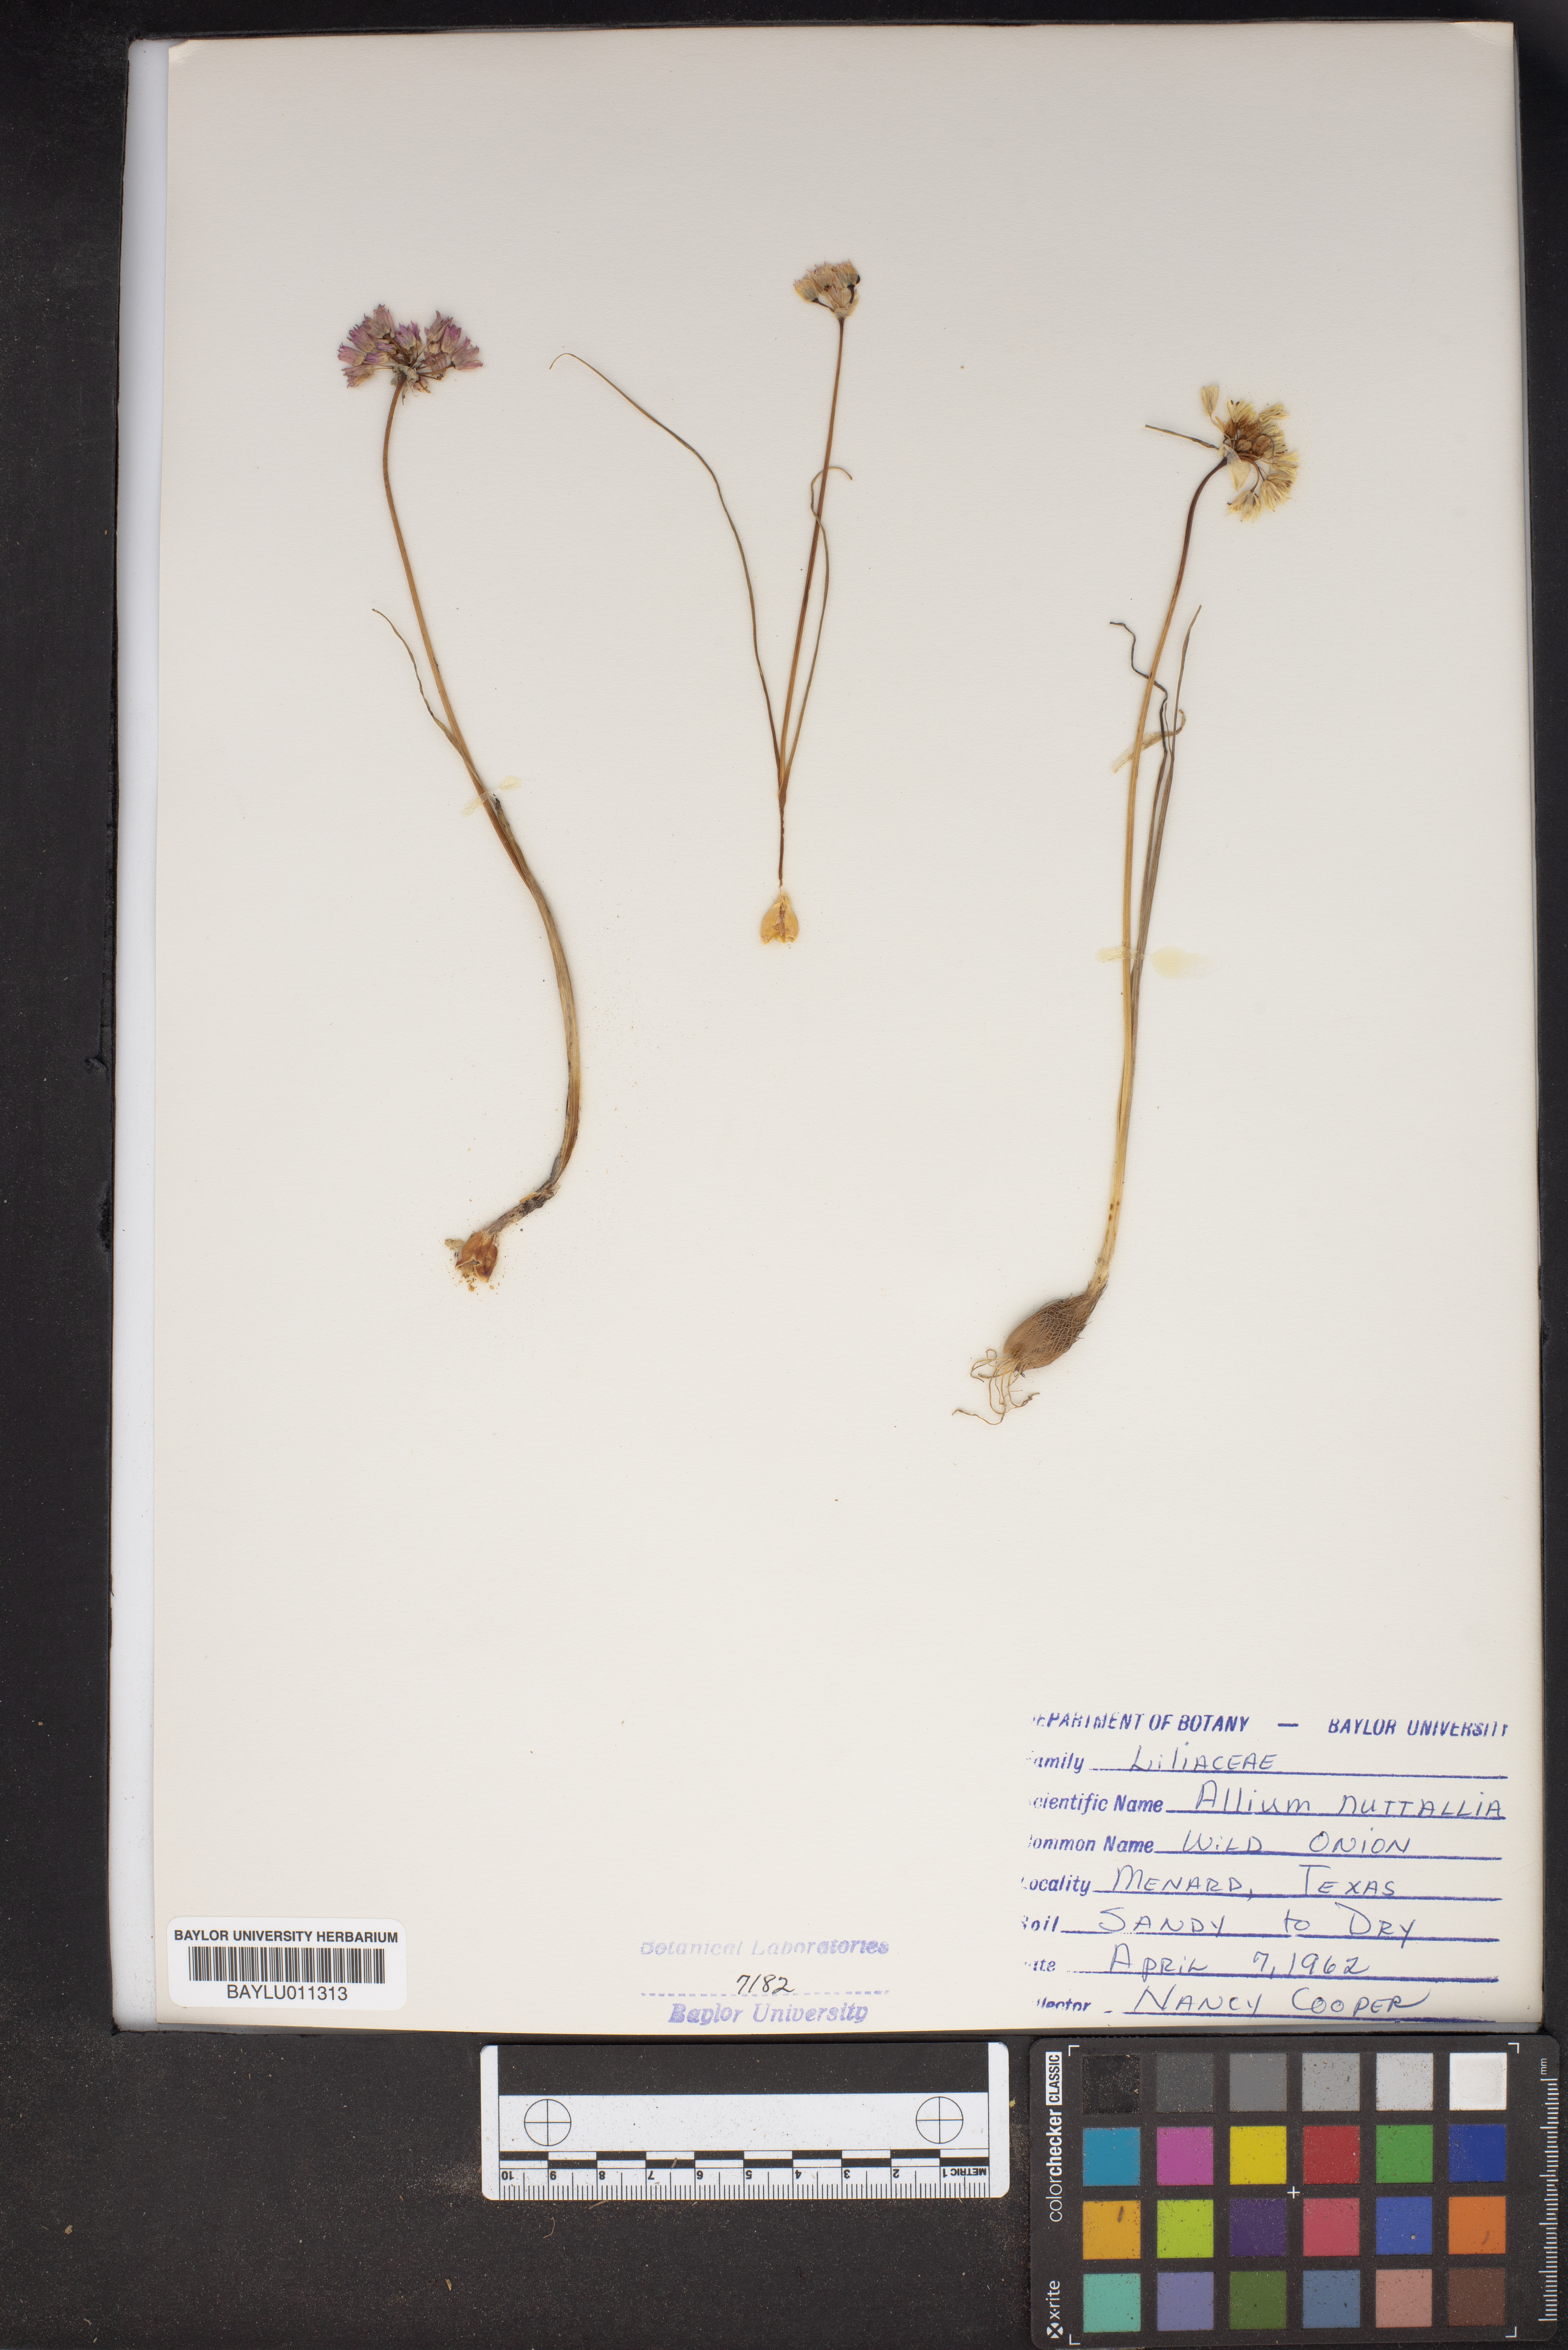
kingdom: Plantae
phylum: Tracheophyta
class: Liliopsida
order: Asparagales
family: Amaryllidaceae
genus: Allium
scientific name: Allium drummondii
